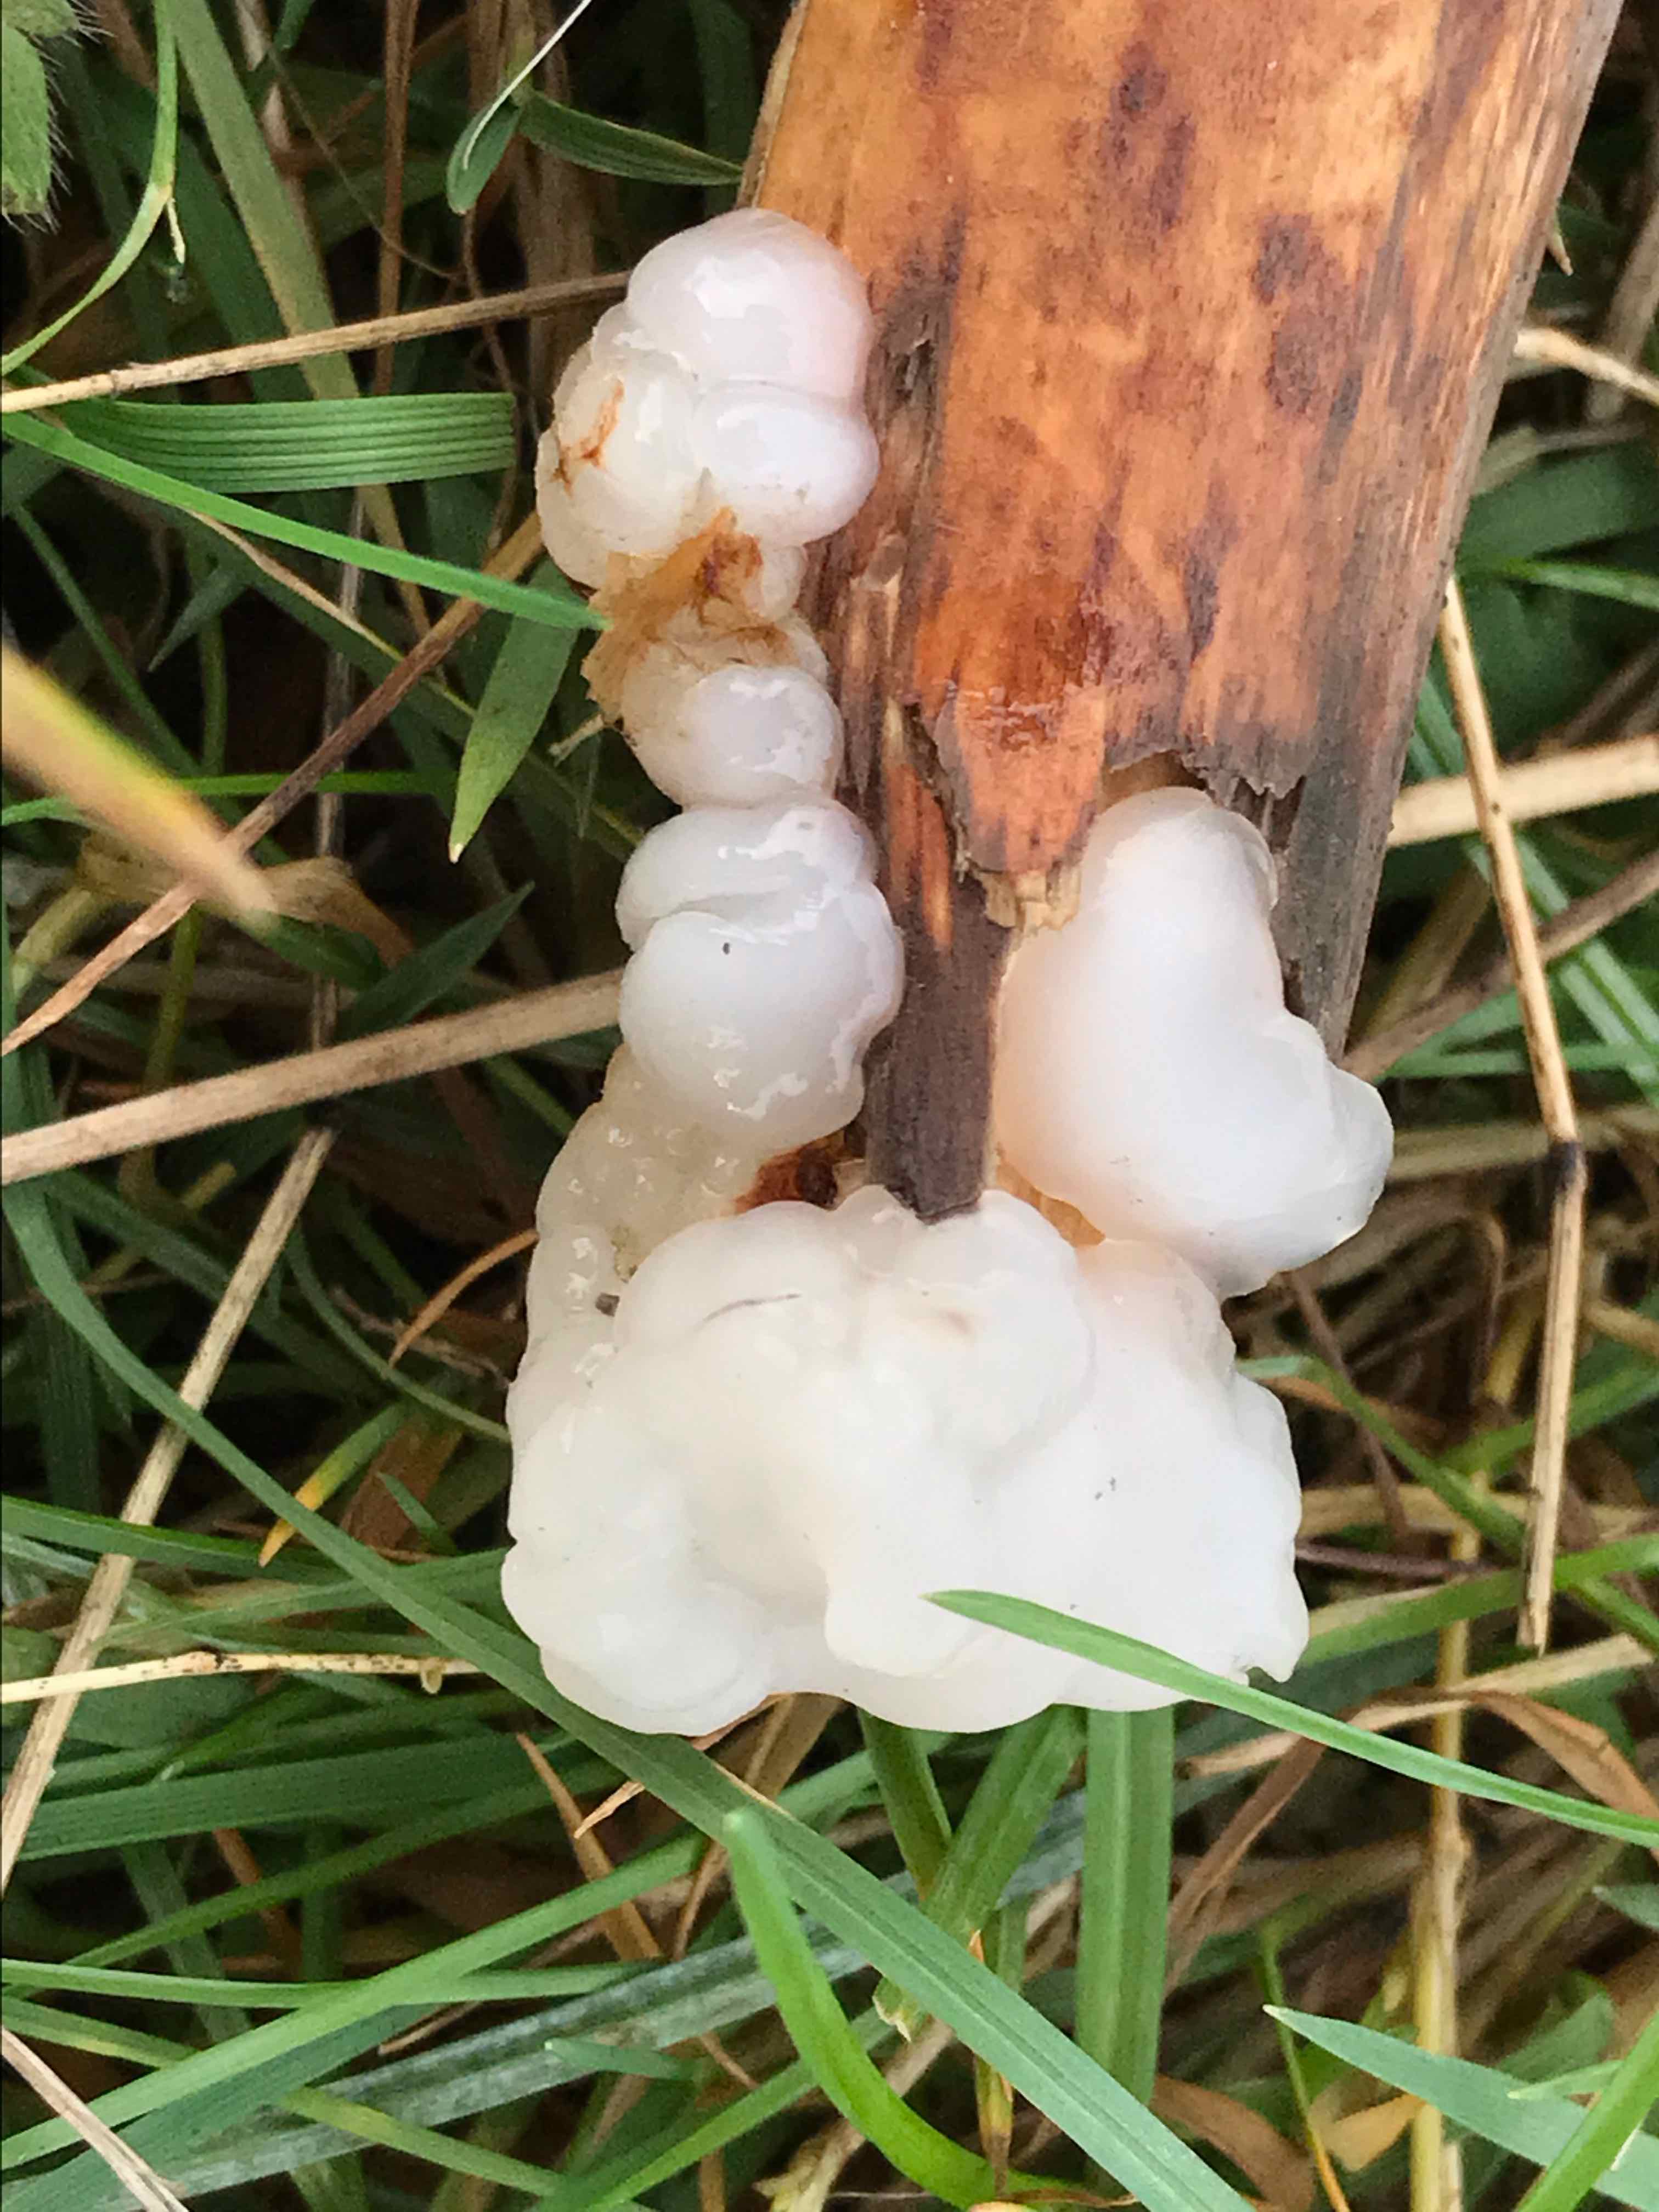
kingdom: Fungi
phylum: Basidiomycota
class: Agaricomycetes
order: Auriculariales
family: Auriculariaceae
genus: Exidia
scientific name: Exidia thuretiana
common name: hvidlig bævretop
